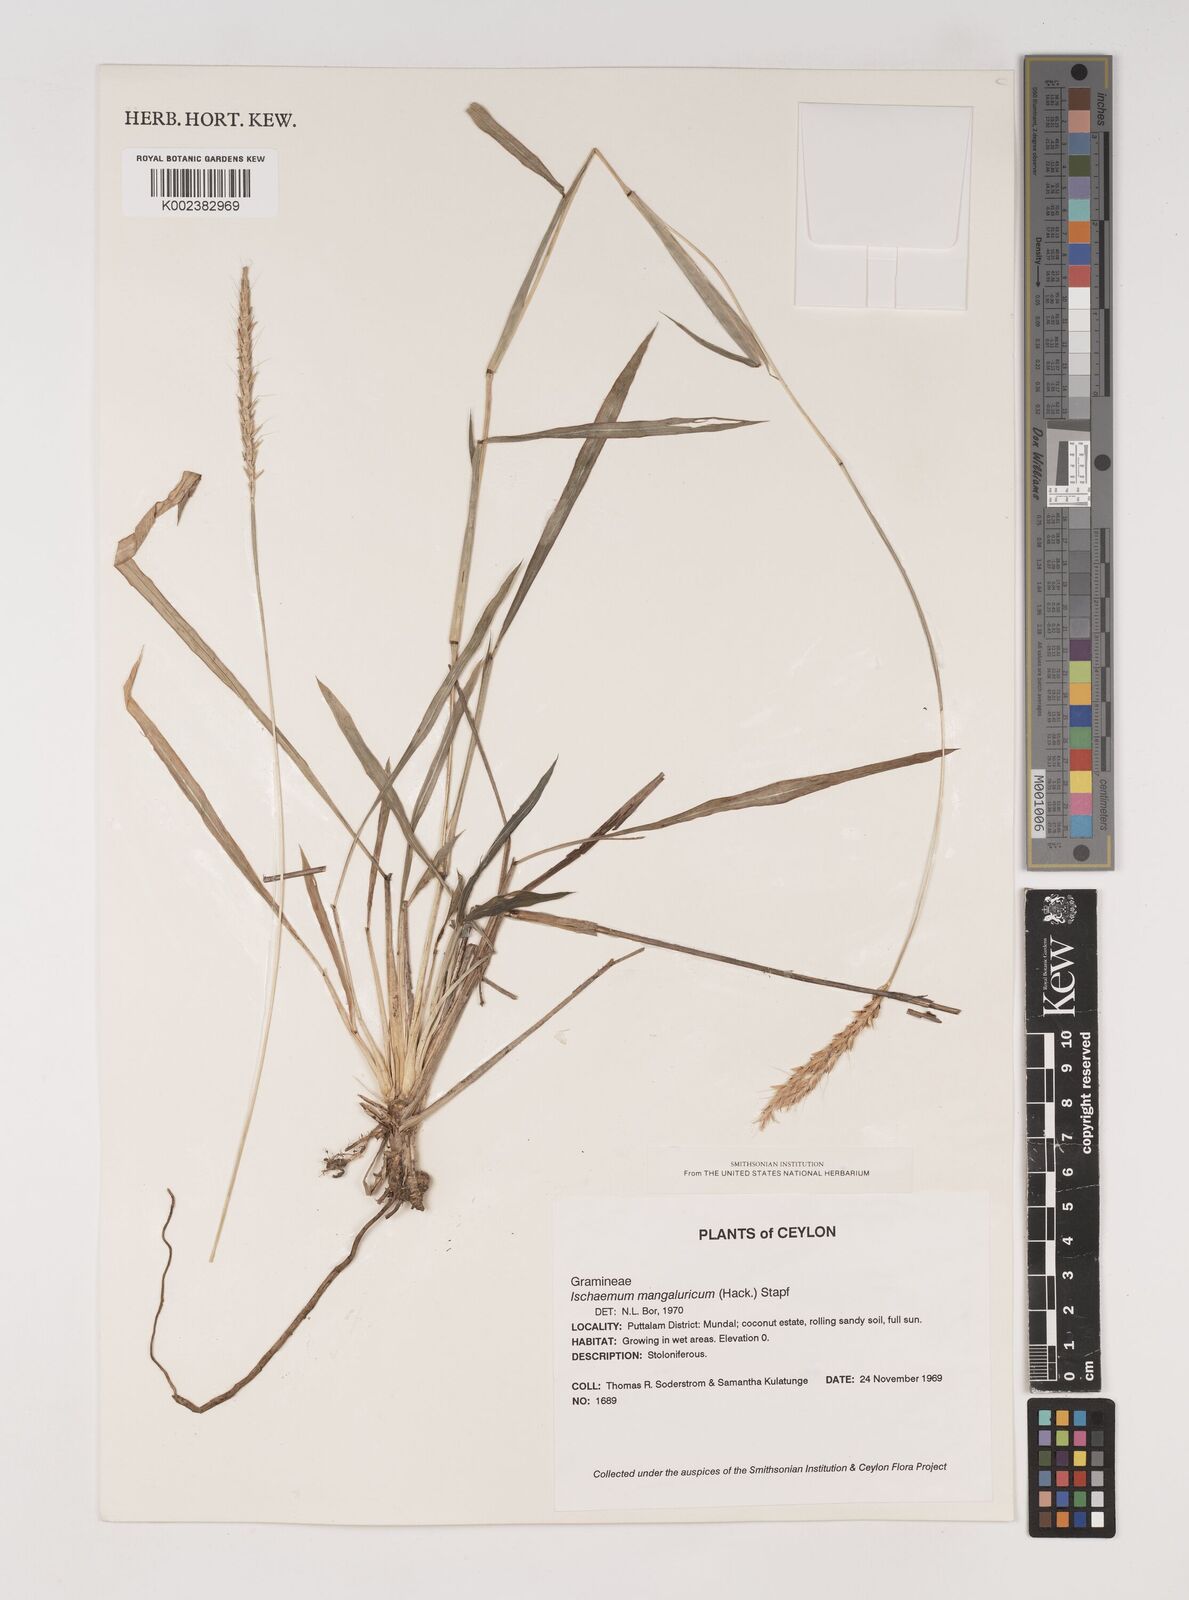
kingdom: Plantae
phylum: Tracheophyta
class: Liliopsida
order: Poales
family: Poaceae
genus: Ischaemum
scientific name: Ischaemum barbatum
